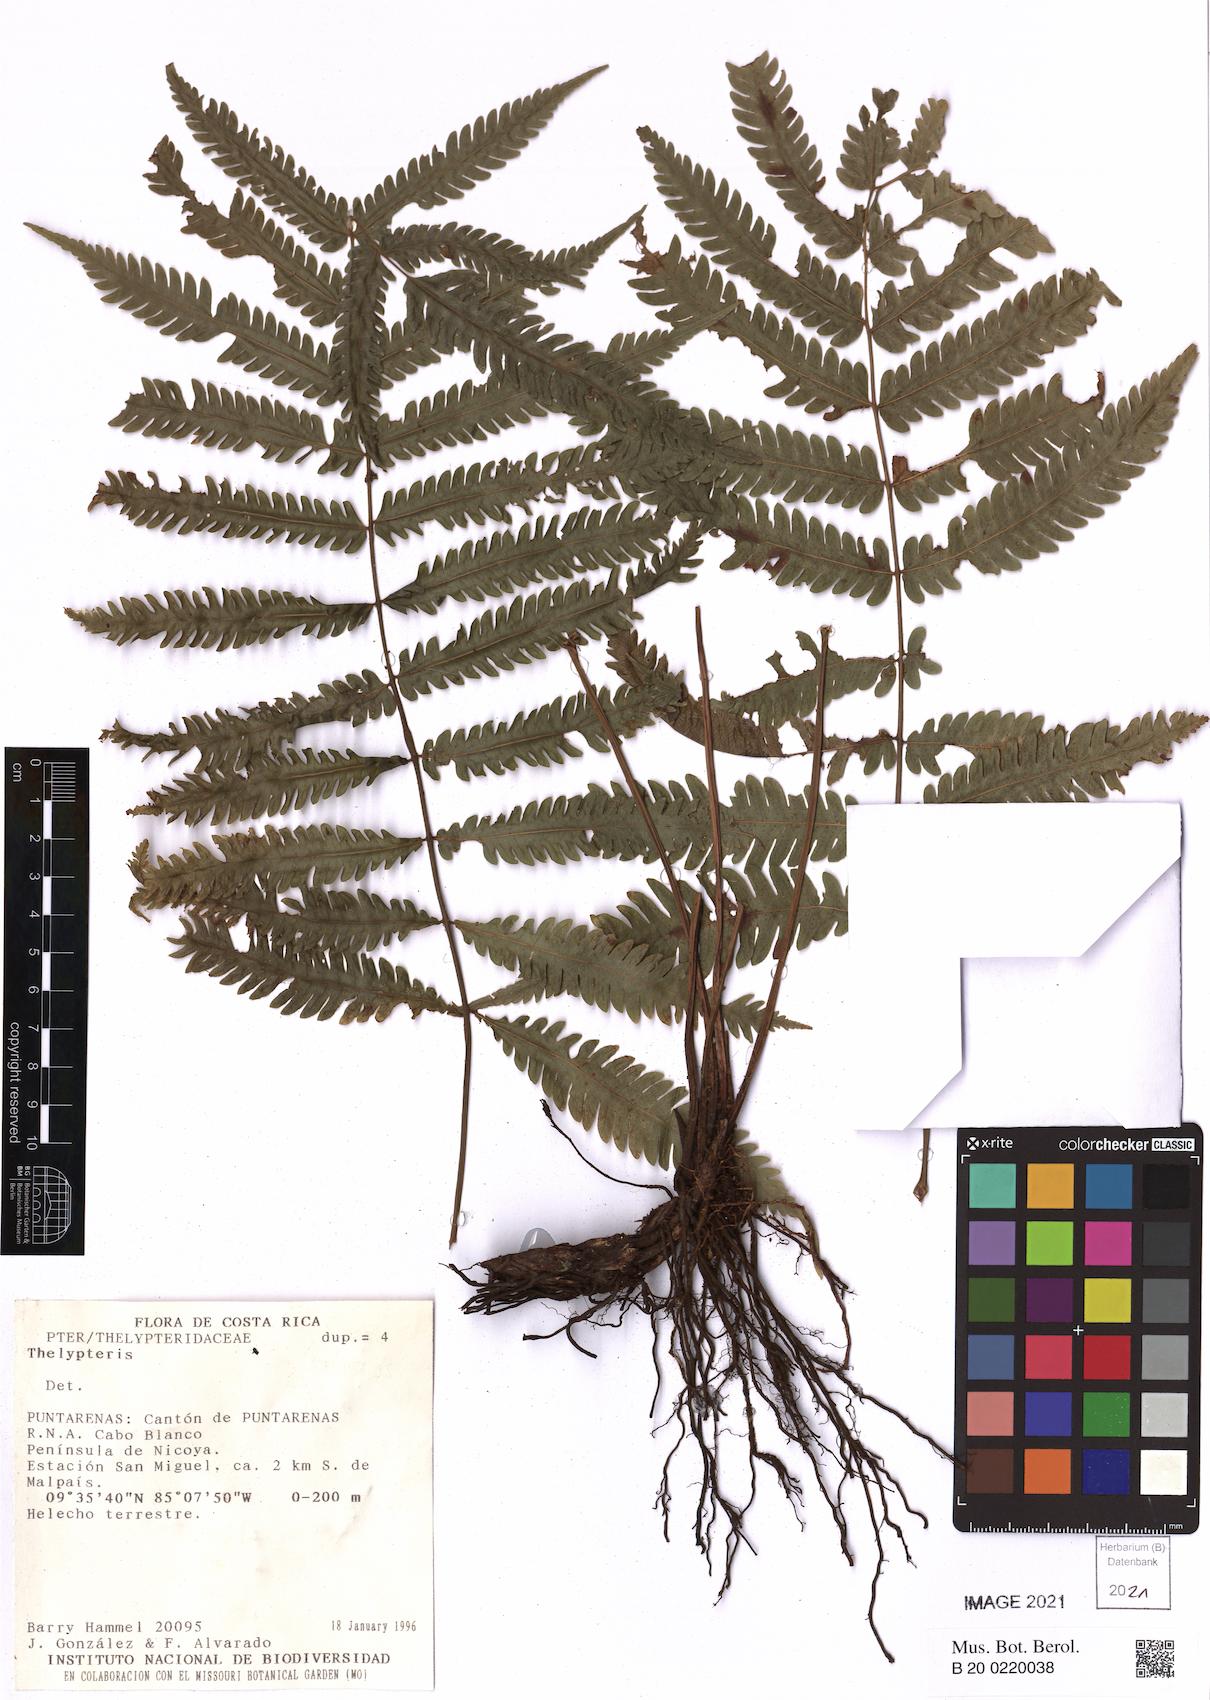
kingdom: Plantae
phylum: Tracheophyta
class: Polypodiopsida
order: Polypodiales
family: Thelypteridaceae
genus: Thelypteris
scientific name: Thelypteris
